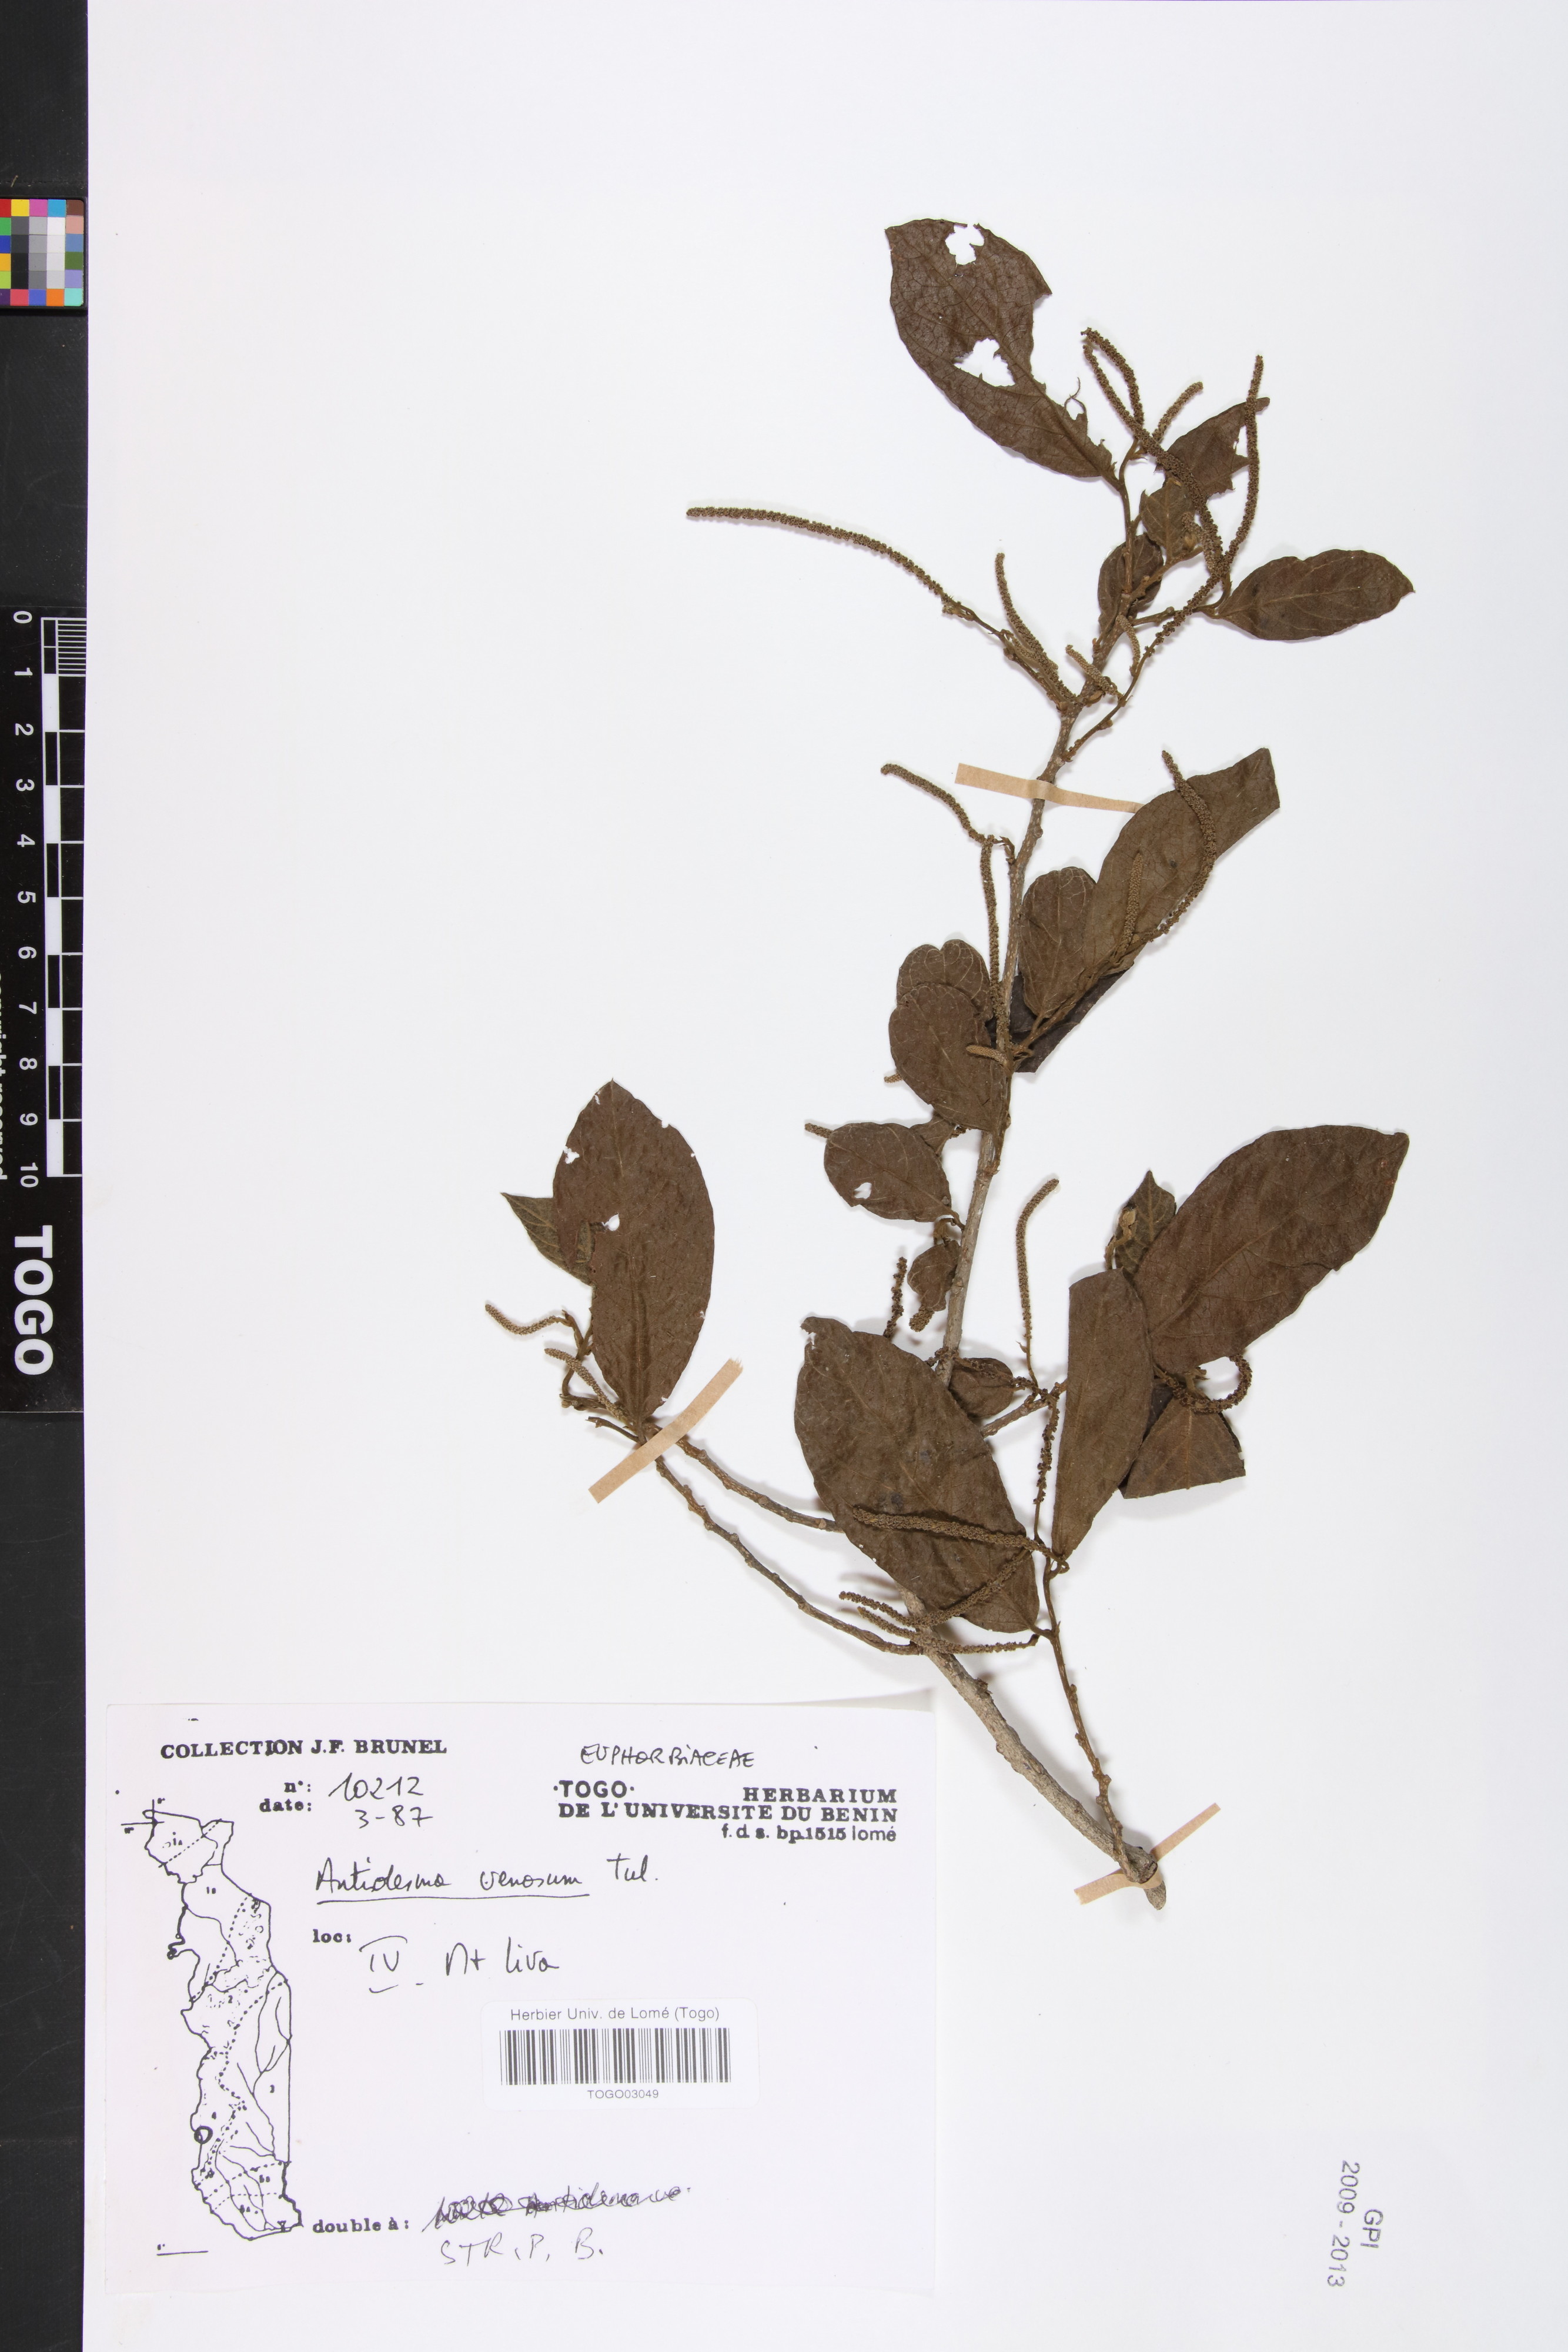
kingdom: Plantae
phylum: Tracheophyta
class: Magnoliopsida
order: Malpighiales
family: Phyllanthaceae
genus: Antidesma
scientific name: Antidesma venosum
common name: Tassel-berry
